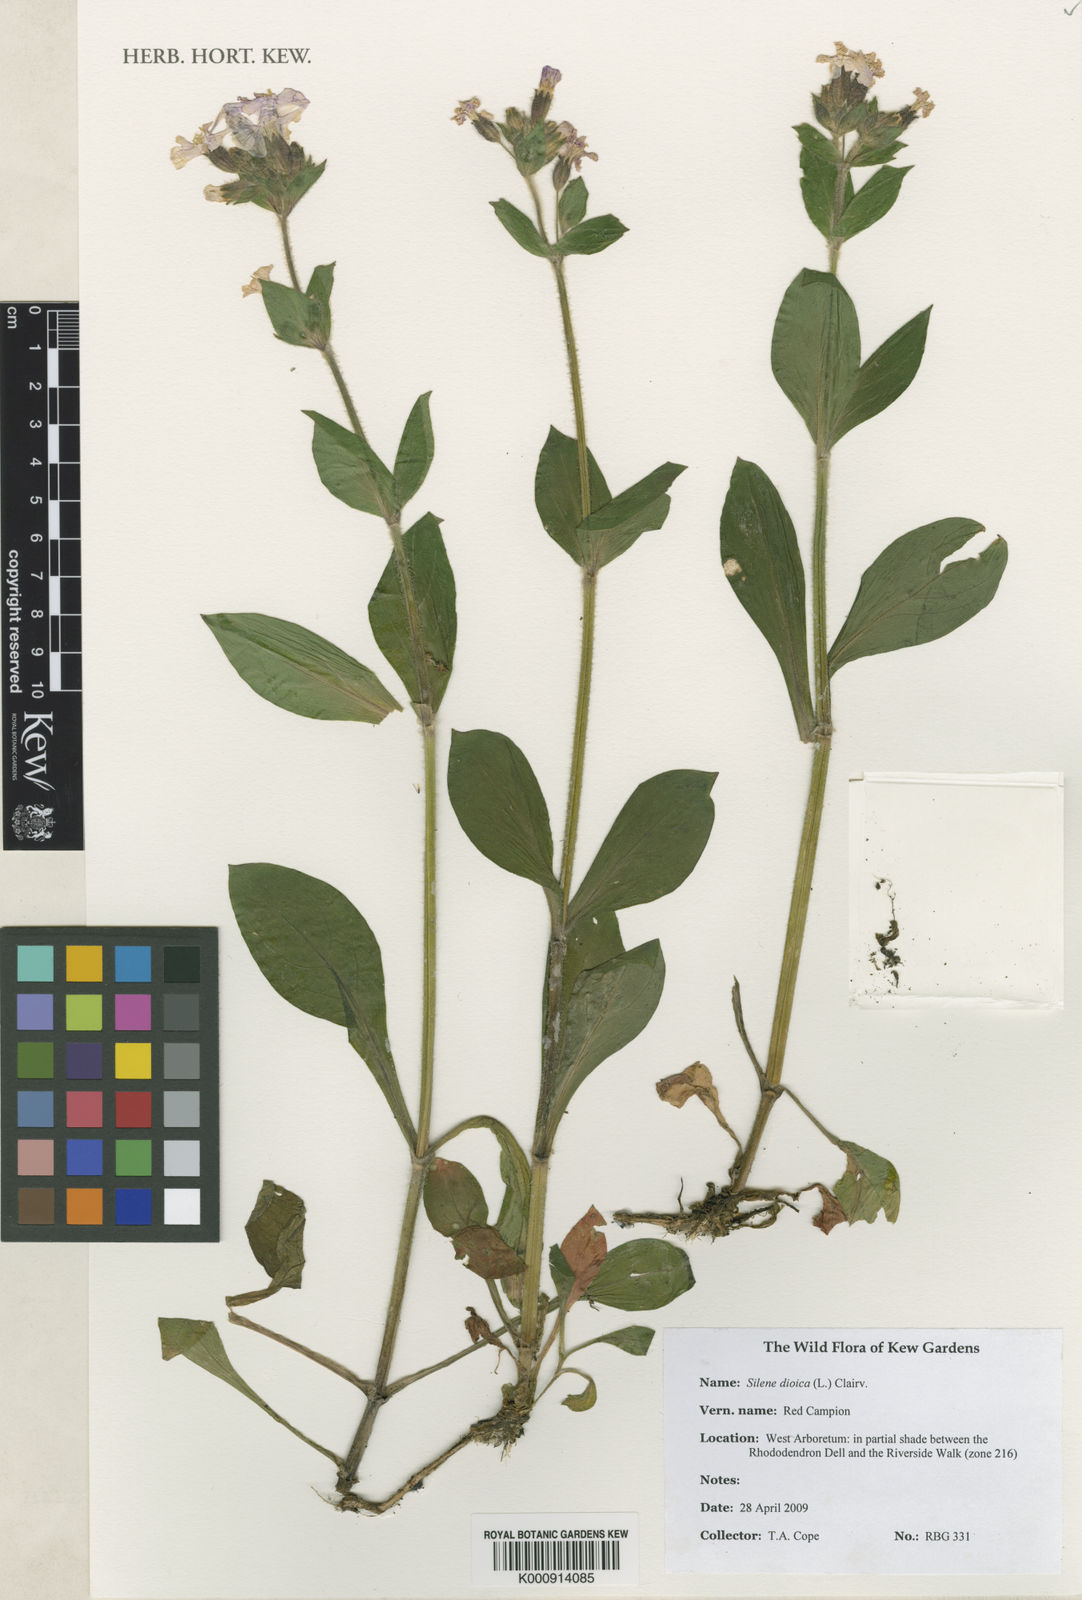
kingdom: Plantae
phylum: Tracheophyta
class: Magnoliopsida
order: Caryophyllales
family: Caryophyllaceae
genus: Silene
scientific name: Silene dioica
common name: Red campion
